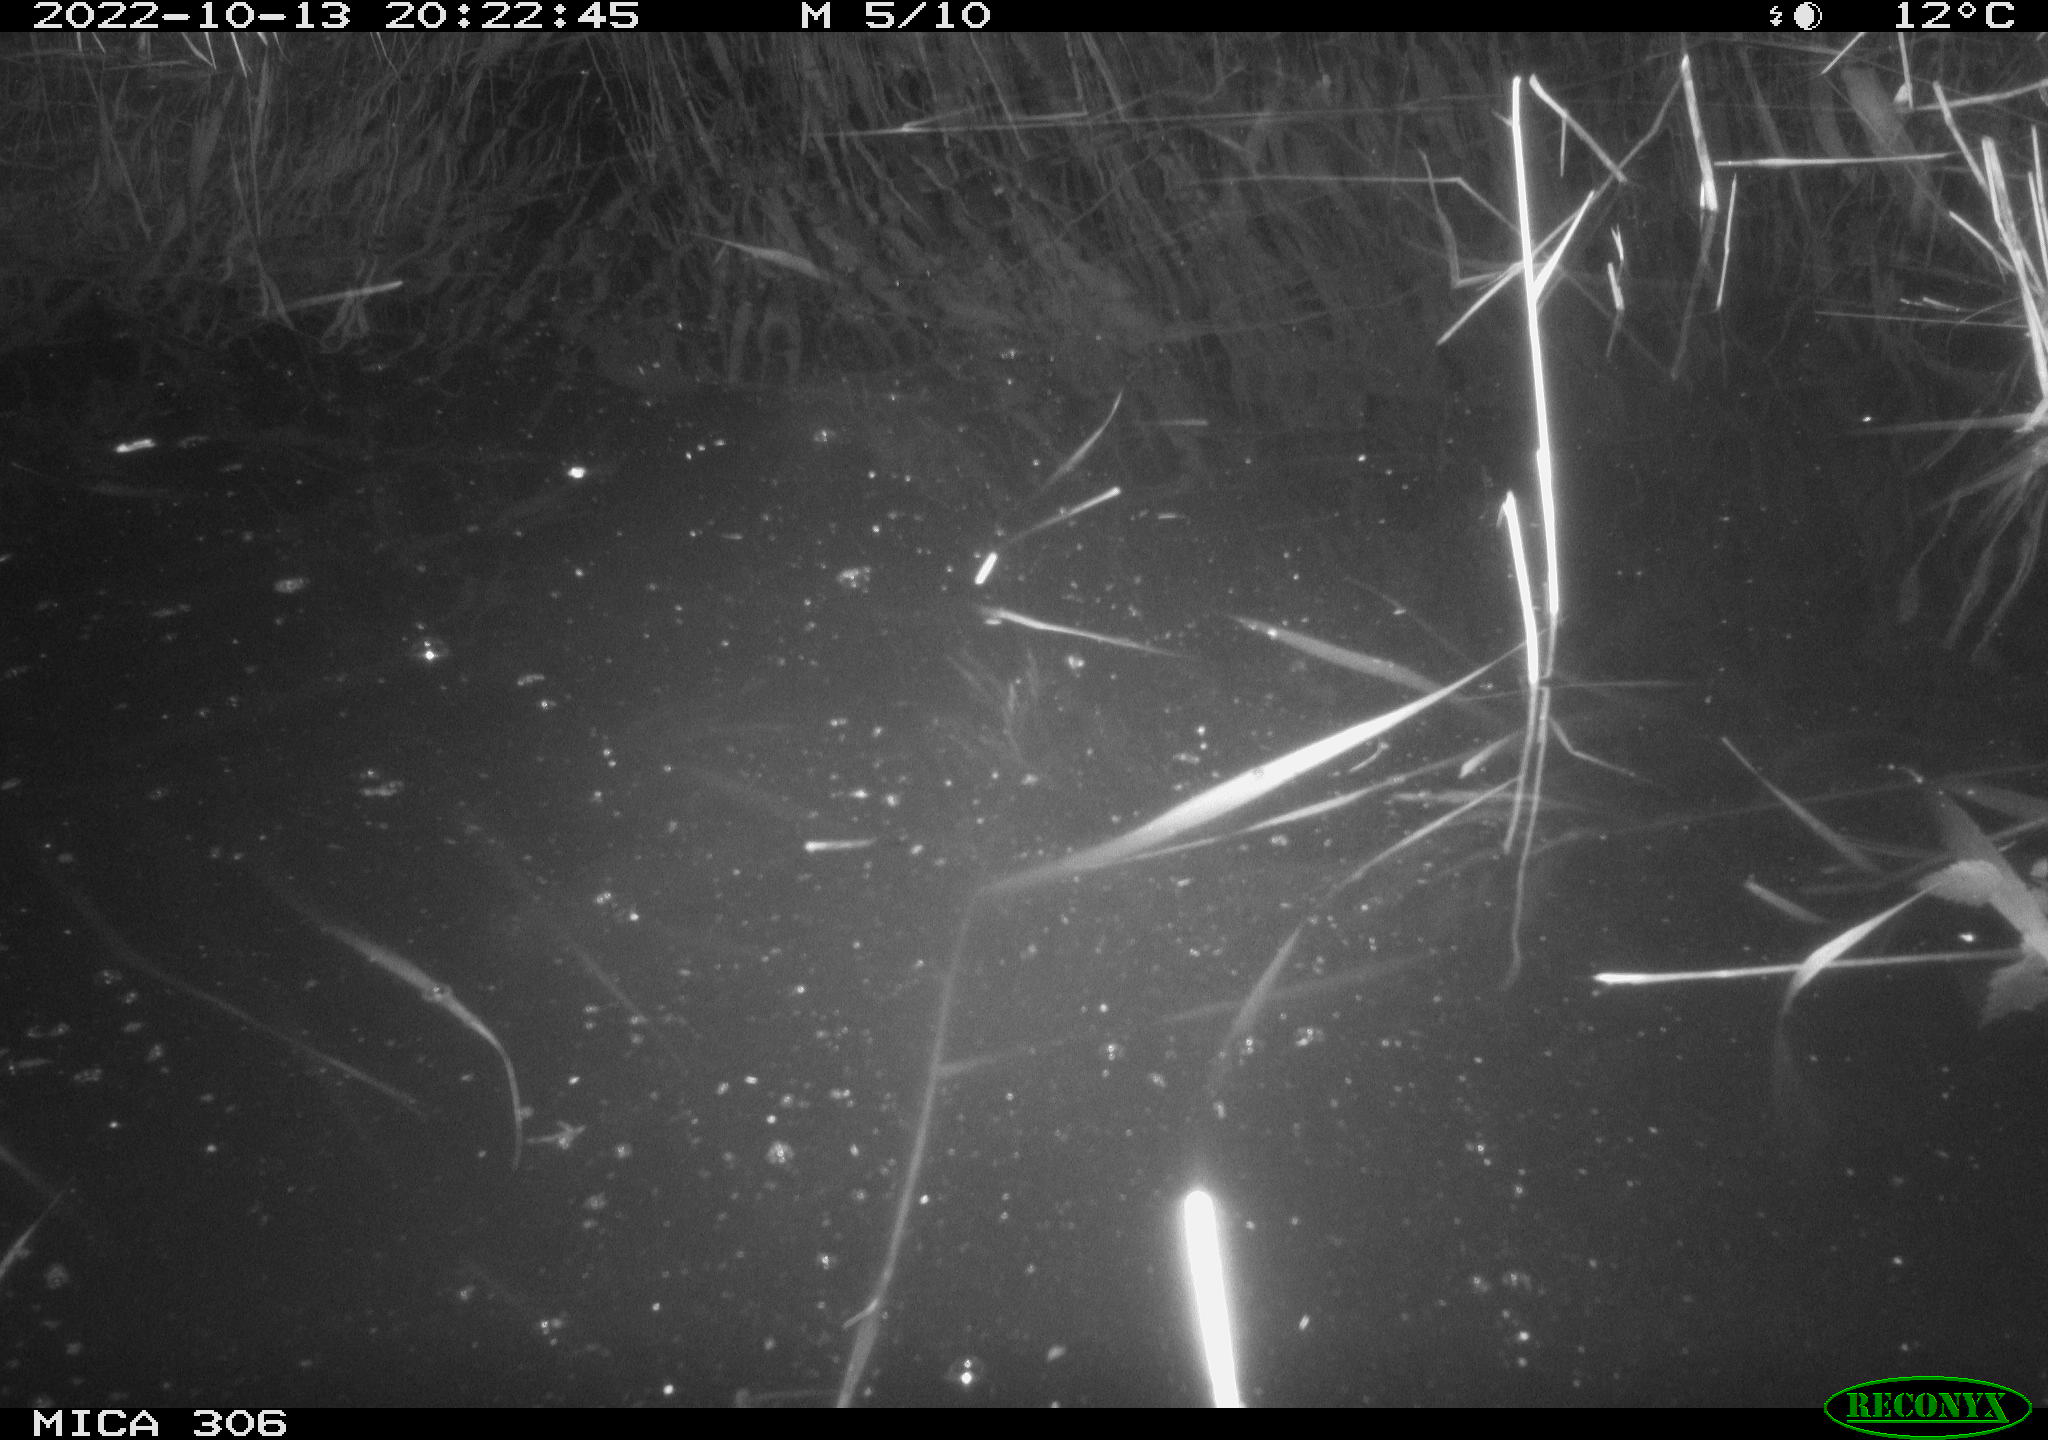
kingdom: Animalia
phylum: Chordata
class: Mammalia
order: Rodentia
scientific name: Rodentia
